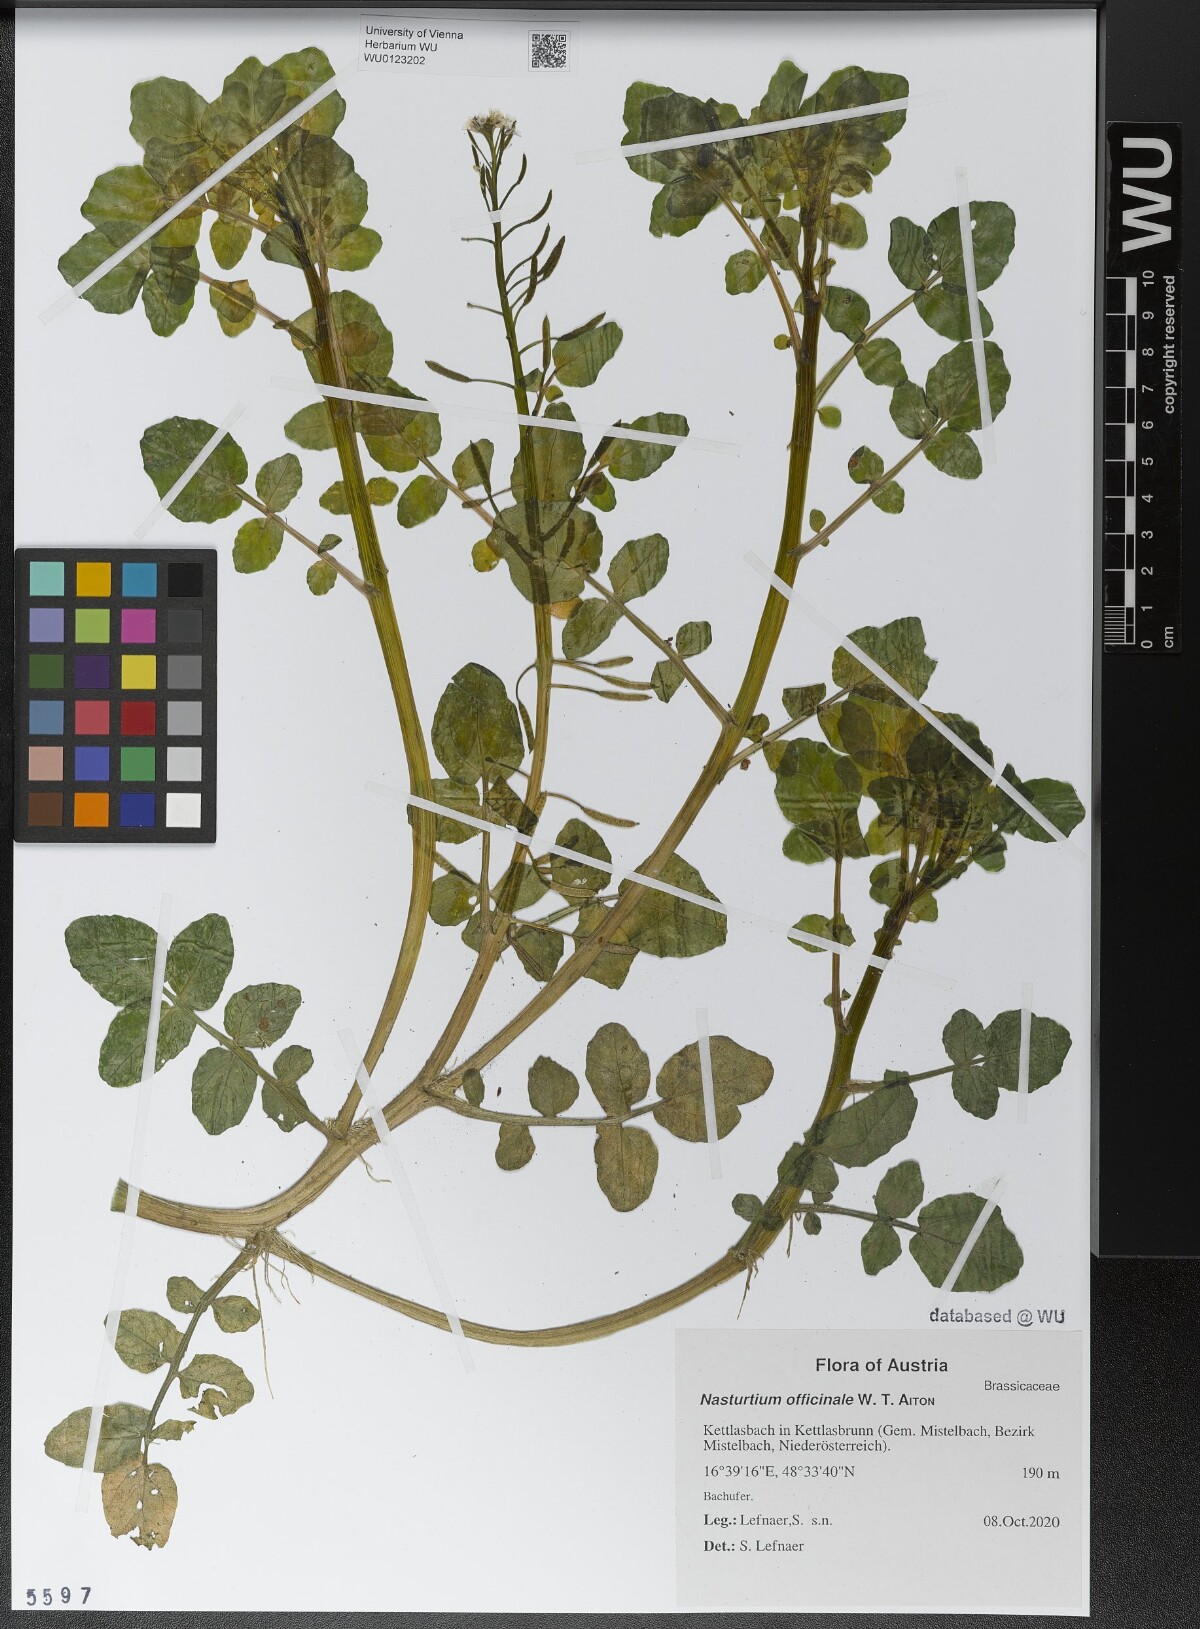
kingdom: Plantae
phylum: Tracheophyta
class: Magnoliopsida
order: Brassicales
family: Brassicaceae
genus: Nasturtium
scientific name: Nasturtium officinale
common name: Watercress
